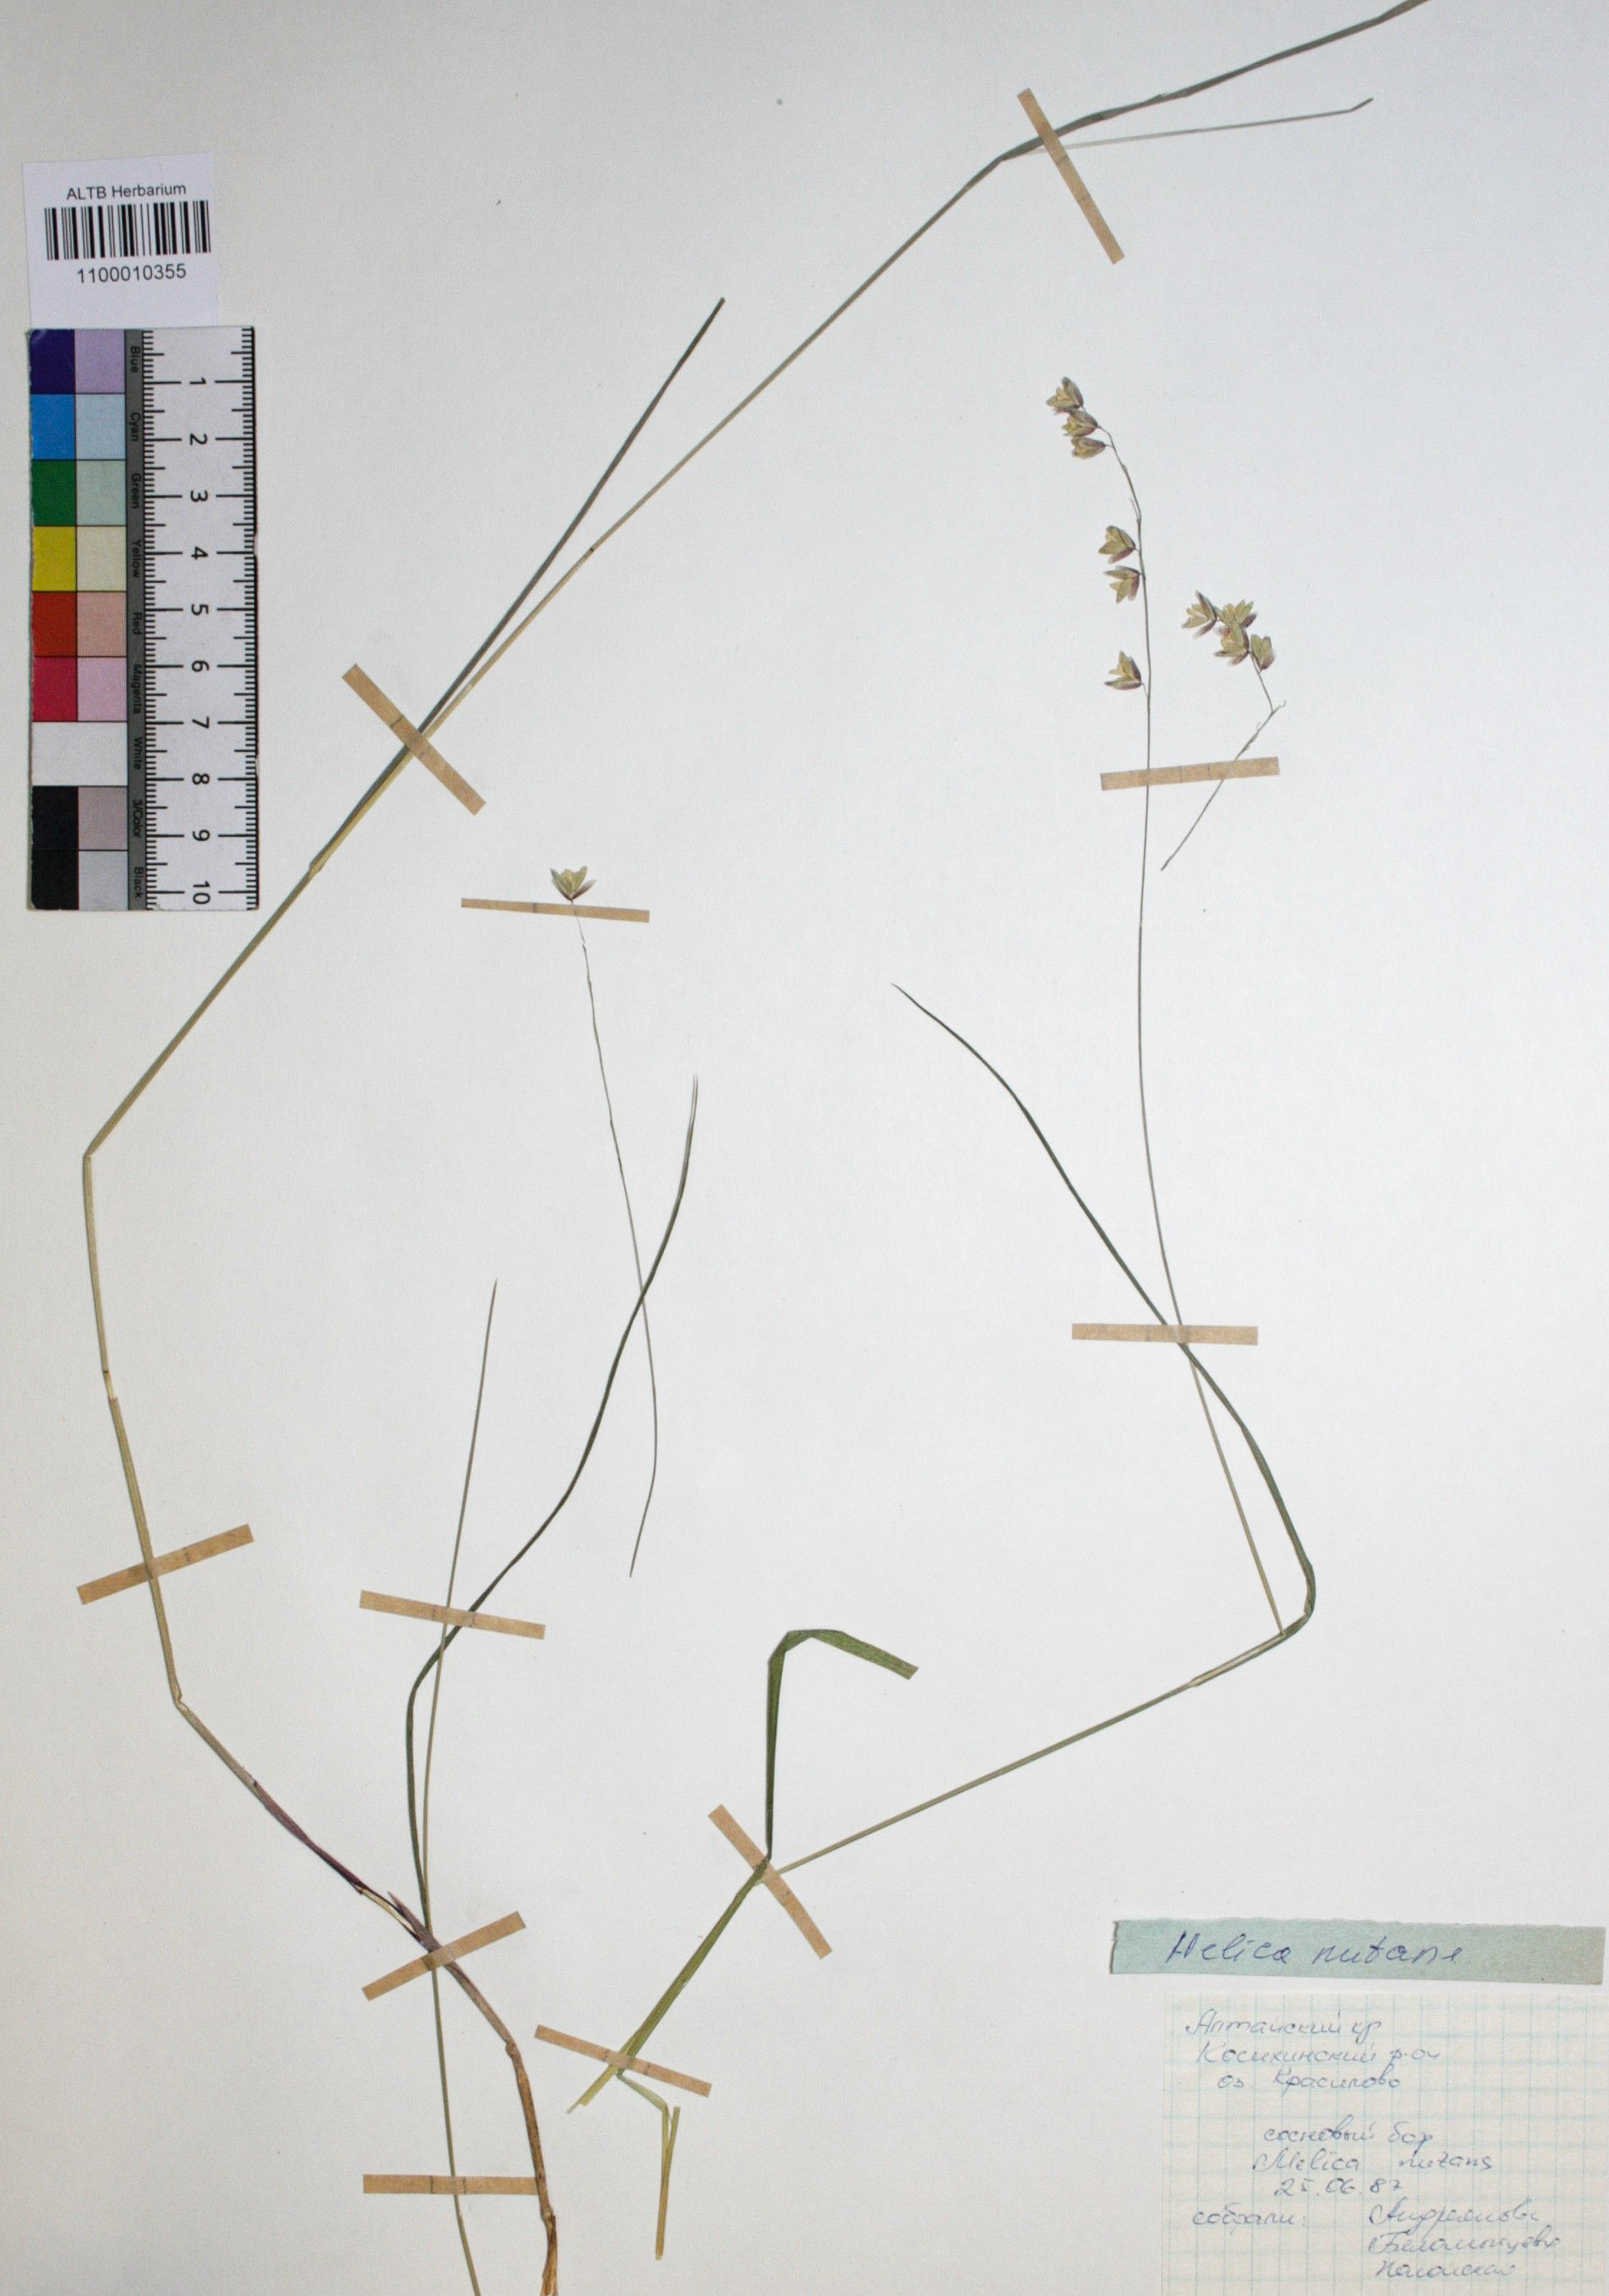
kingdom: Plantae
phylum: Tracheophyta
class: Liliopsida
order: Poales
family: Poaceae
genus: Melica
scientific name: Melica nutans
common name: Mountain melick
